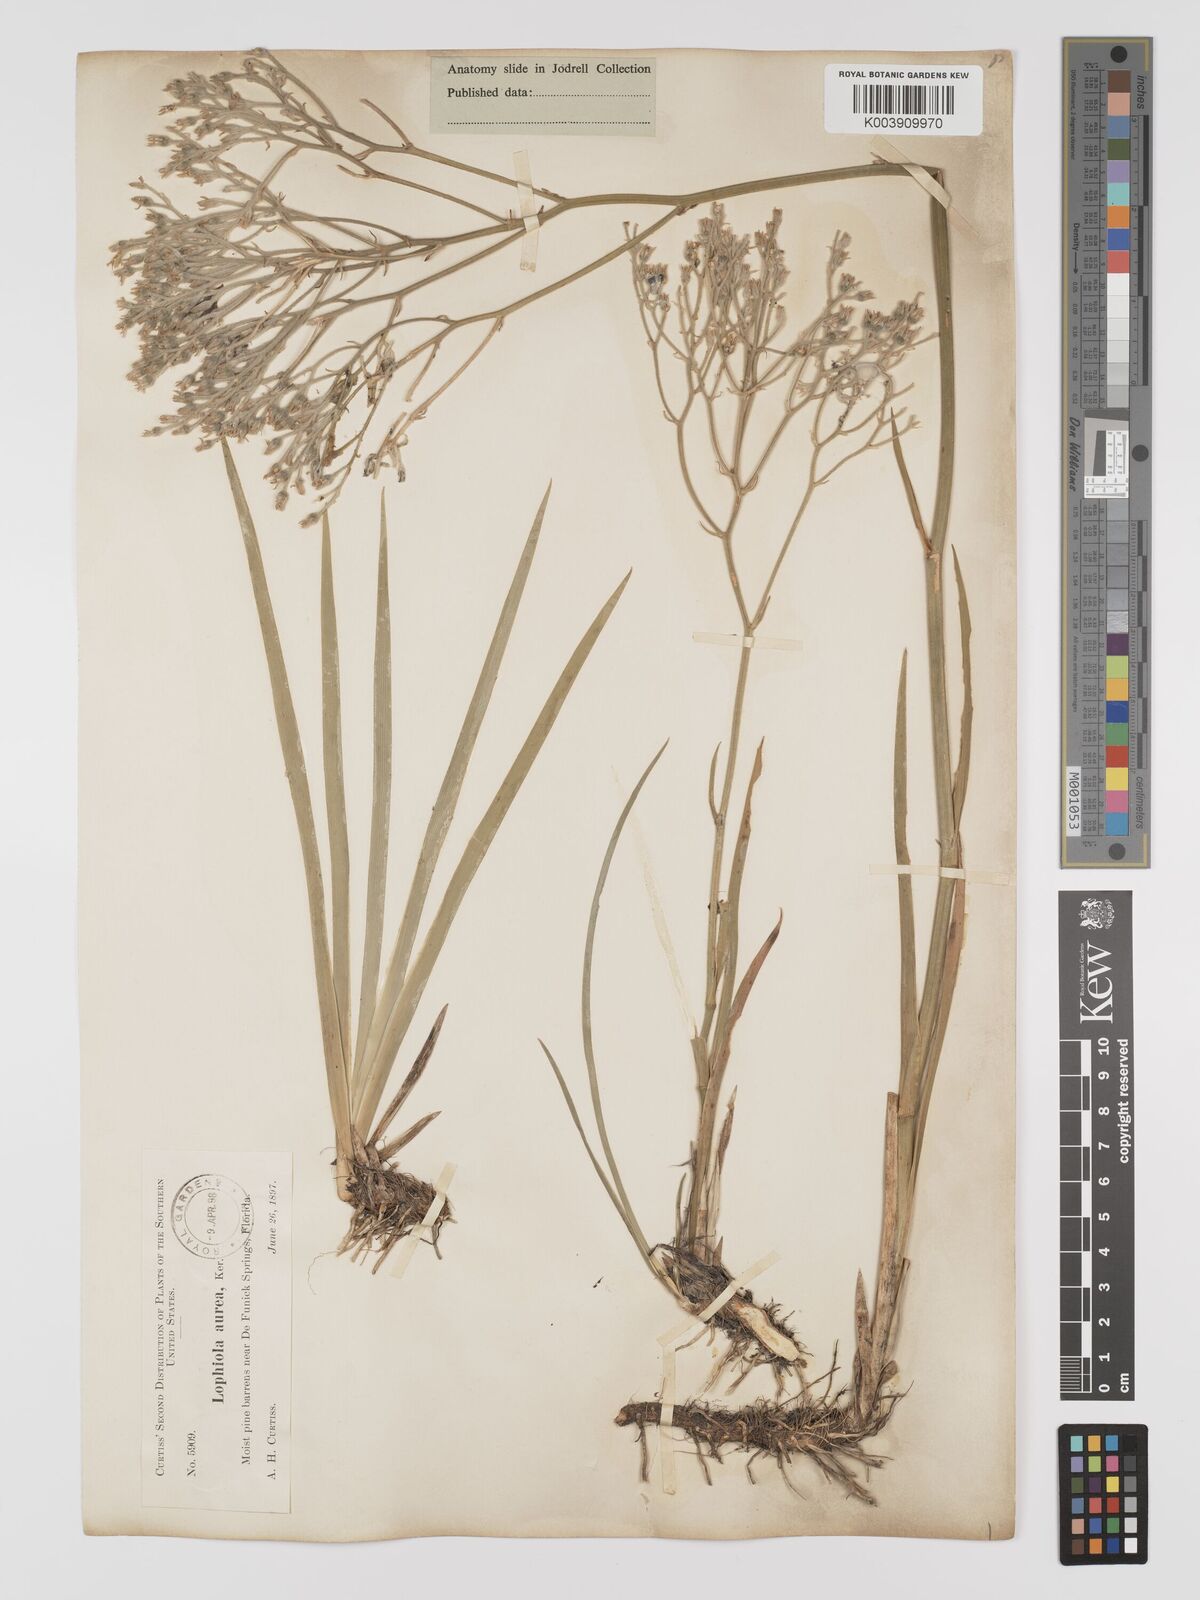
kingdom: Plantae
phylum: Tracheophyta
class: Liliopsida
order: Dioscoreales
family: Nartheciaceae
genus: Lophiola
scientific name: Lophiola aurea
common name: Golden-crest
